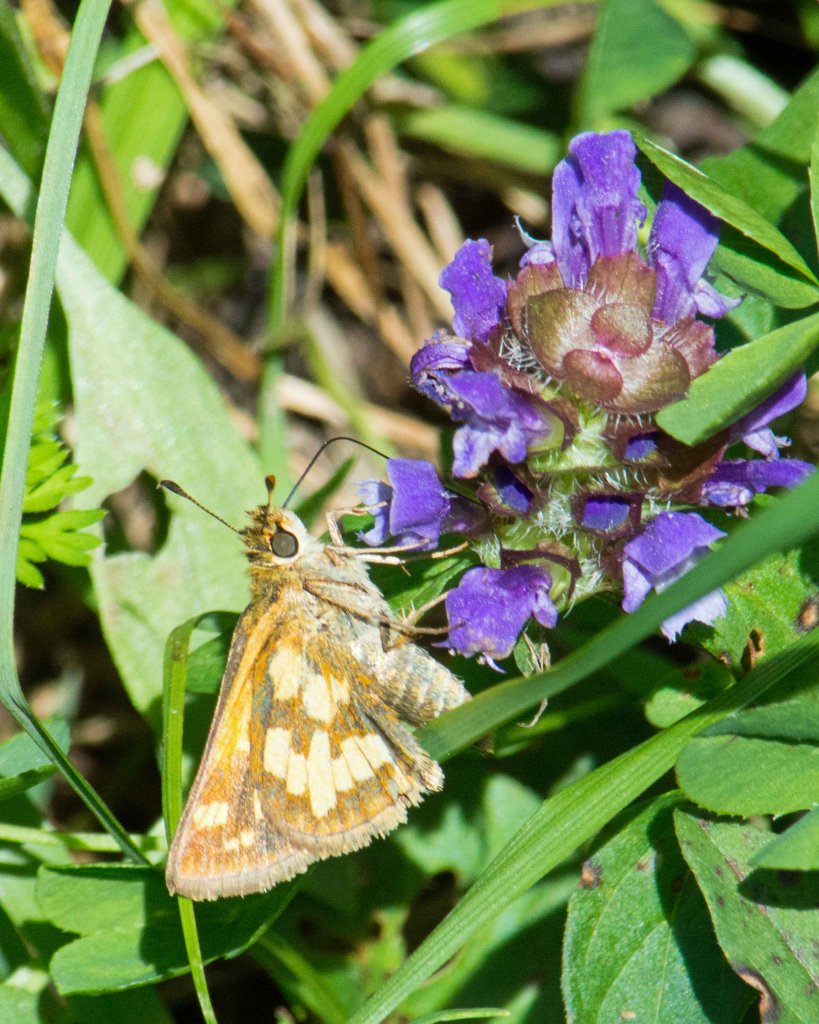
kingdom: Animalia
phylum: Arthropoda
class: Insecta
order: Lepidoptera
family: Hesperiidae
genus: Polites
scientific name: Polites coras
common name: Peck's Skipper
